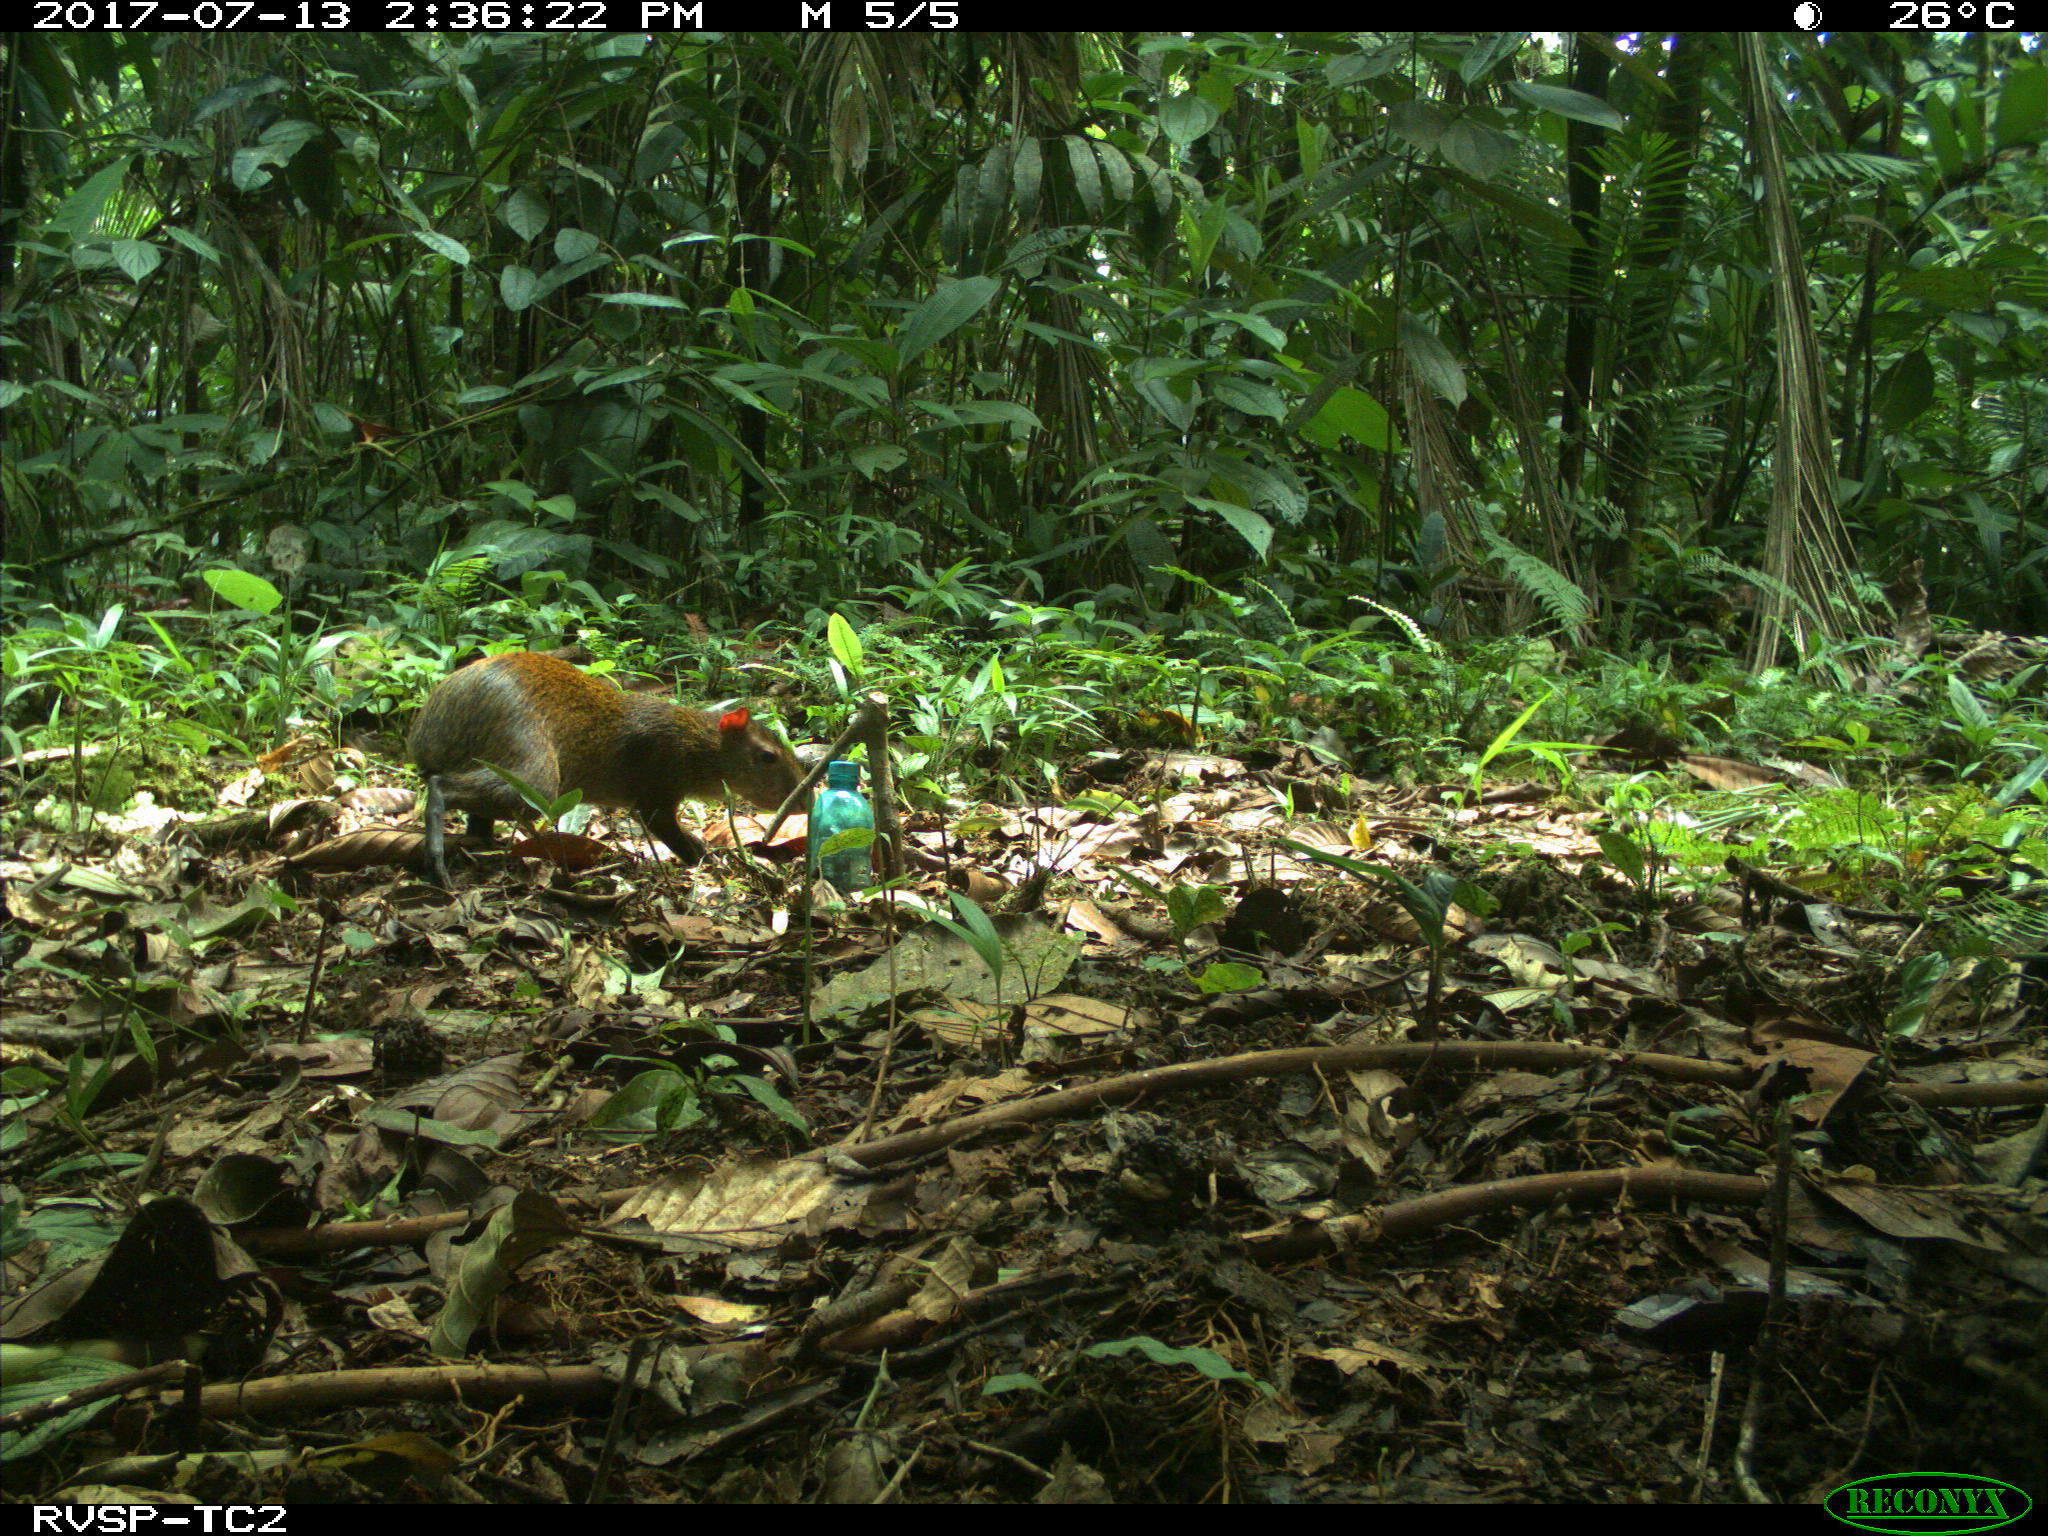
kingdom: Animalia
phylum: Chordata
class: Mammalia
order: Rodentia
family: Dasyproctidae
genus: Dasyprocta
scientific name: Dasyprocta punctata
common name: Central american agouti
